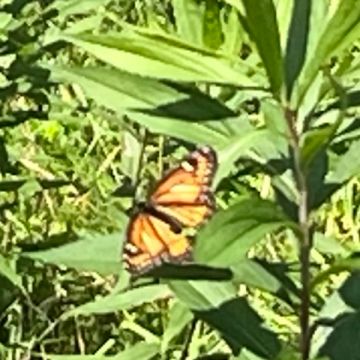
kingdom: Animalia
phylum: Arthropoda
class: Insecta
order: Lepidoptera
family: Nymphalidae
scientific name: Nymphalidae
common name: Brushfoots
